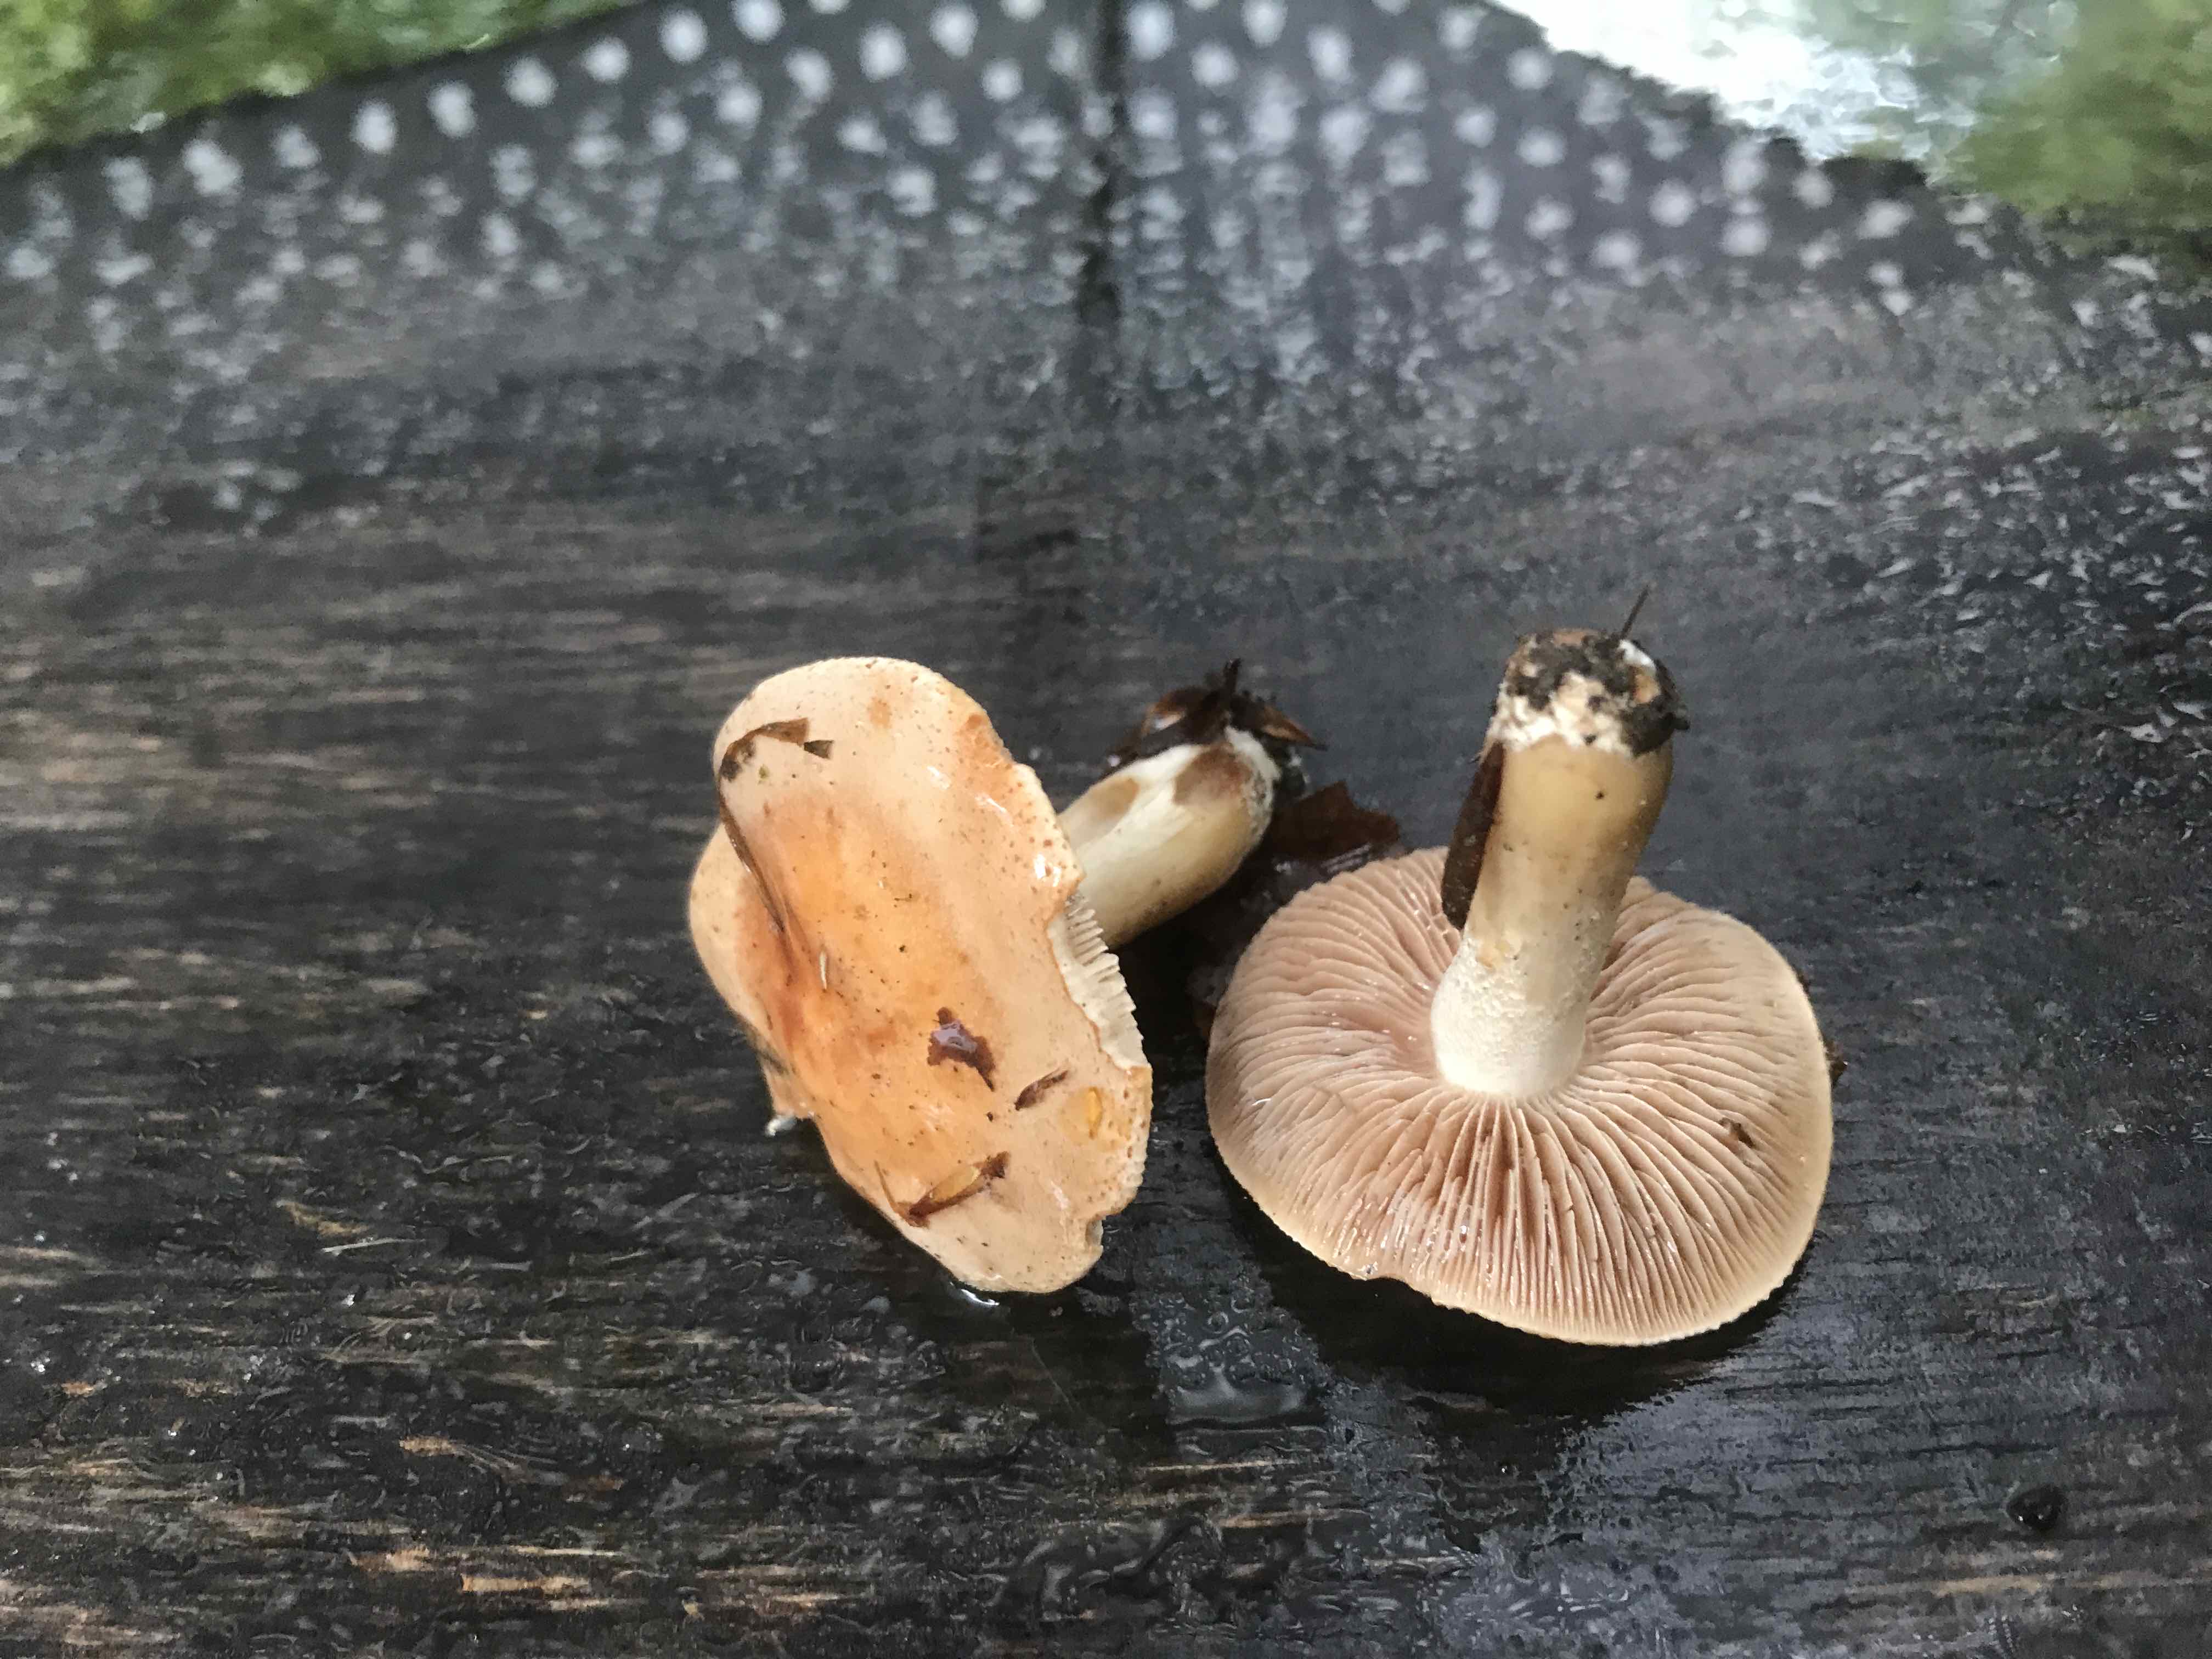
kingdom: Fungi
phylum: Basidiomycota
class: Agaricomycetes
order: Agaricales
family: Hymenogastraceae
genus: Hebeloma
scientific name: Hebeloma
